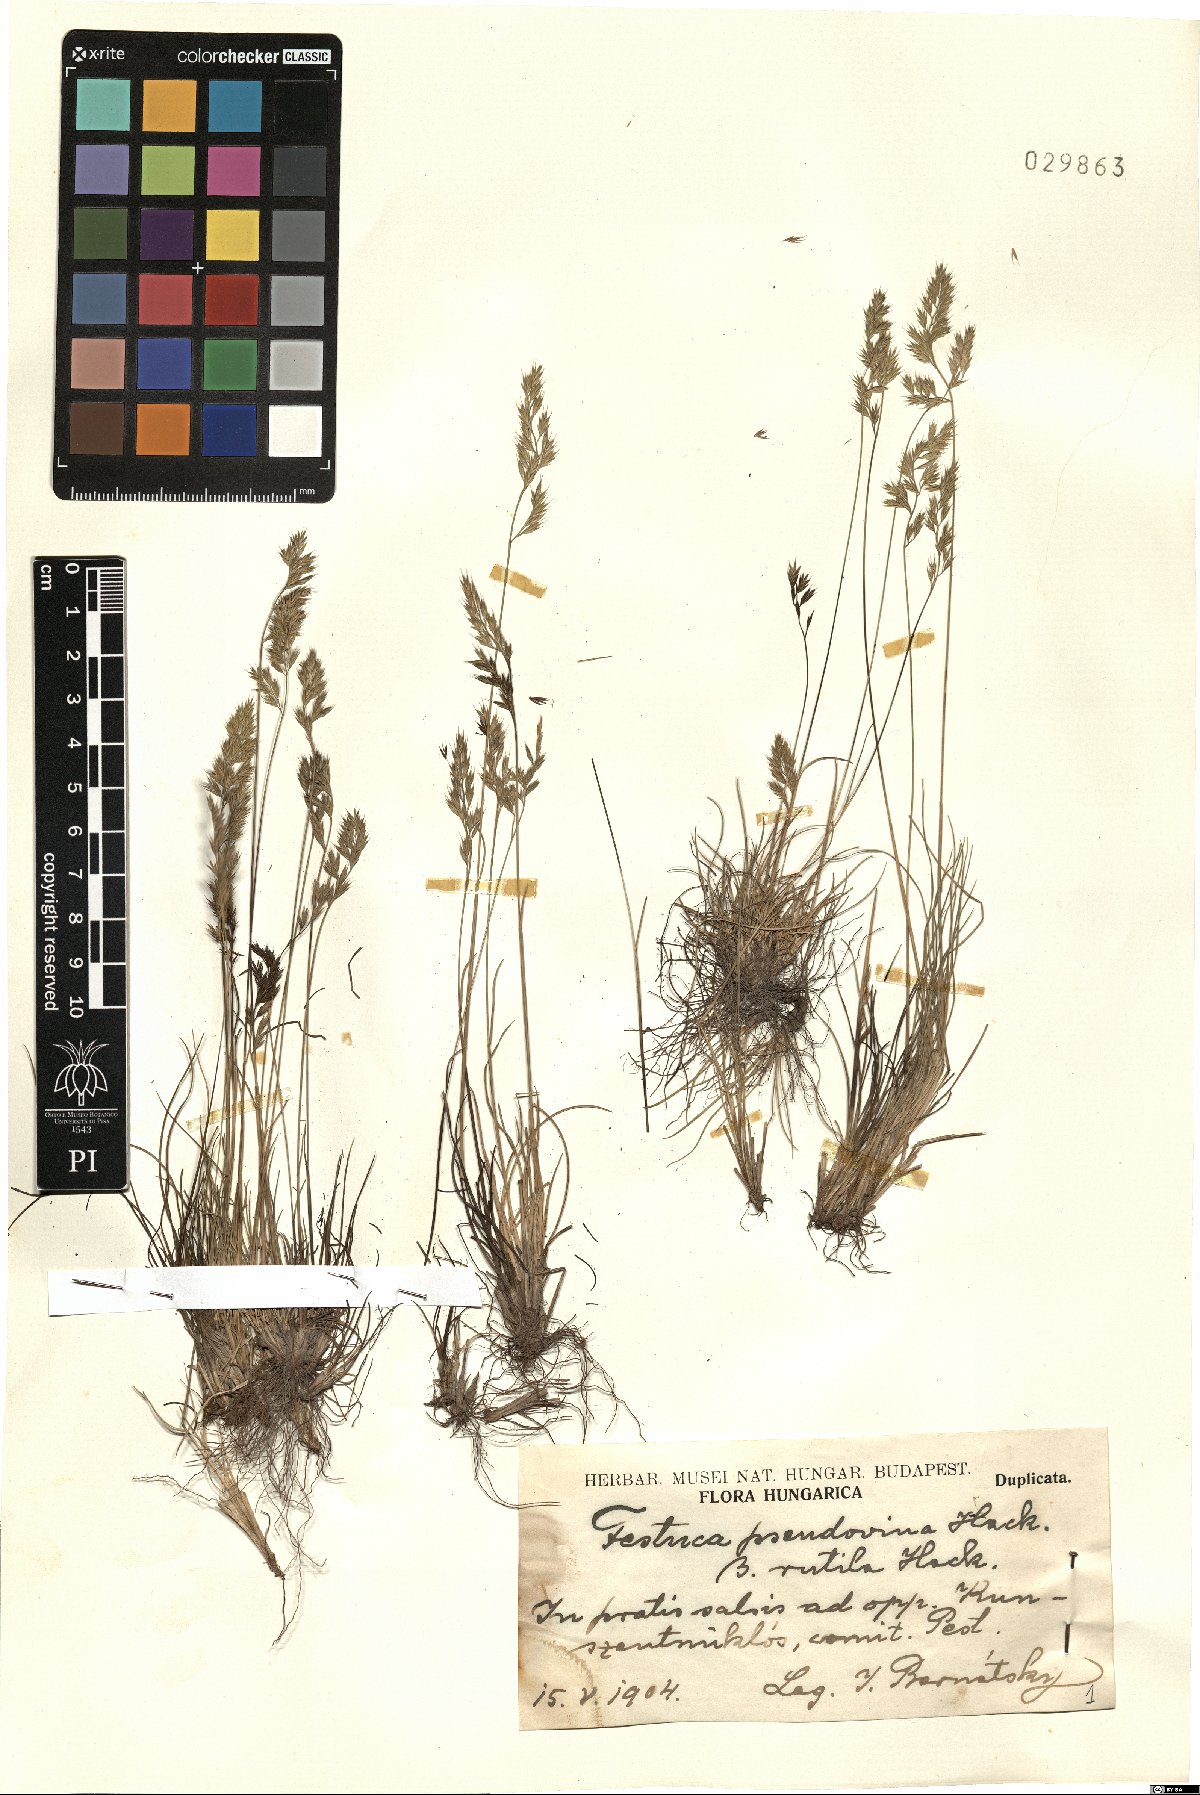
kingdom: Plantae
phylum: Tracheophyta
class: Liliopsida
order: Poales
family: Poaceae
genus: Festuca
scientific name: Festuca pulchra
